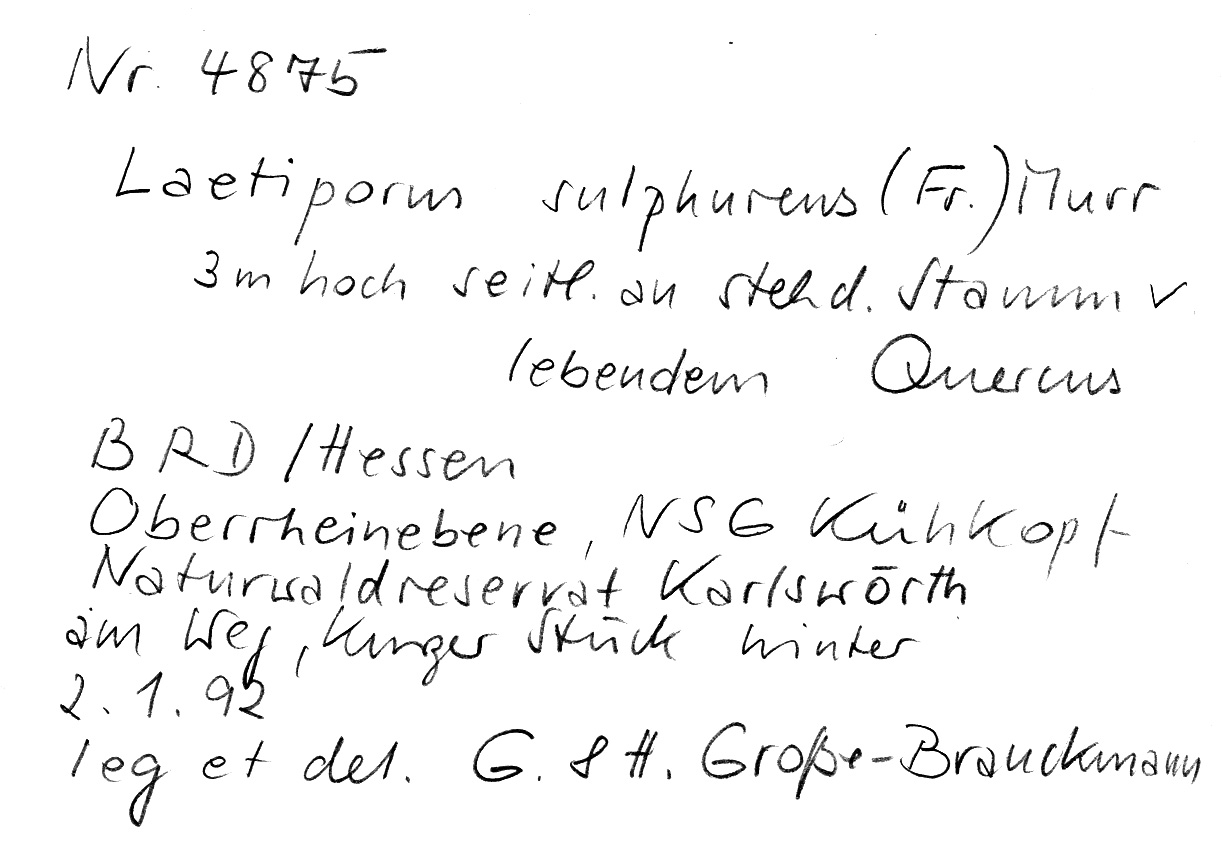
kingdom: Plantae
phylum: Tracheophyta
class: Magnoliopsida
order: Fagales
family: Fagaceae
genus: Quercus
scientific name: Quercus
